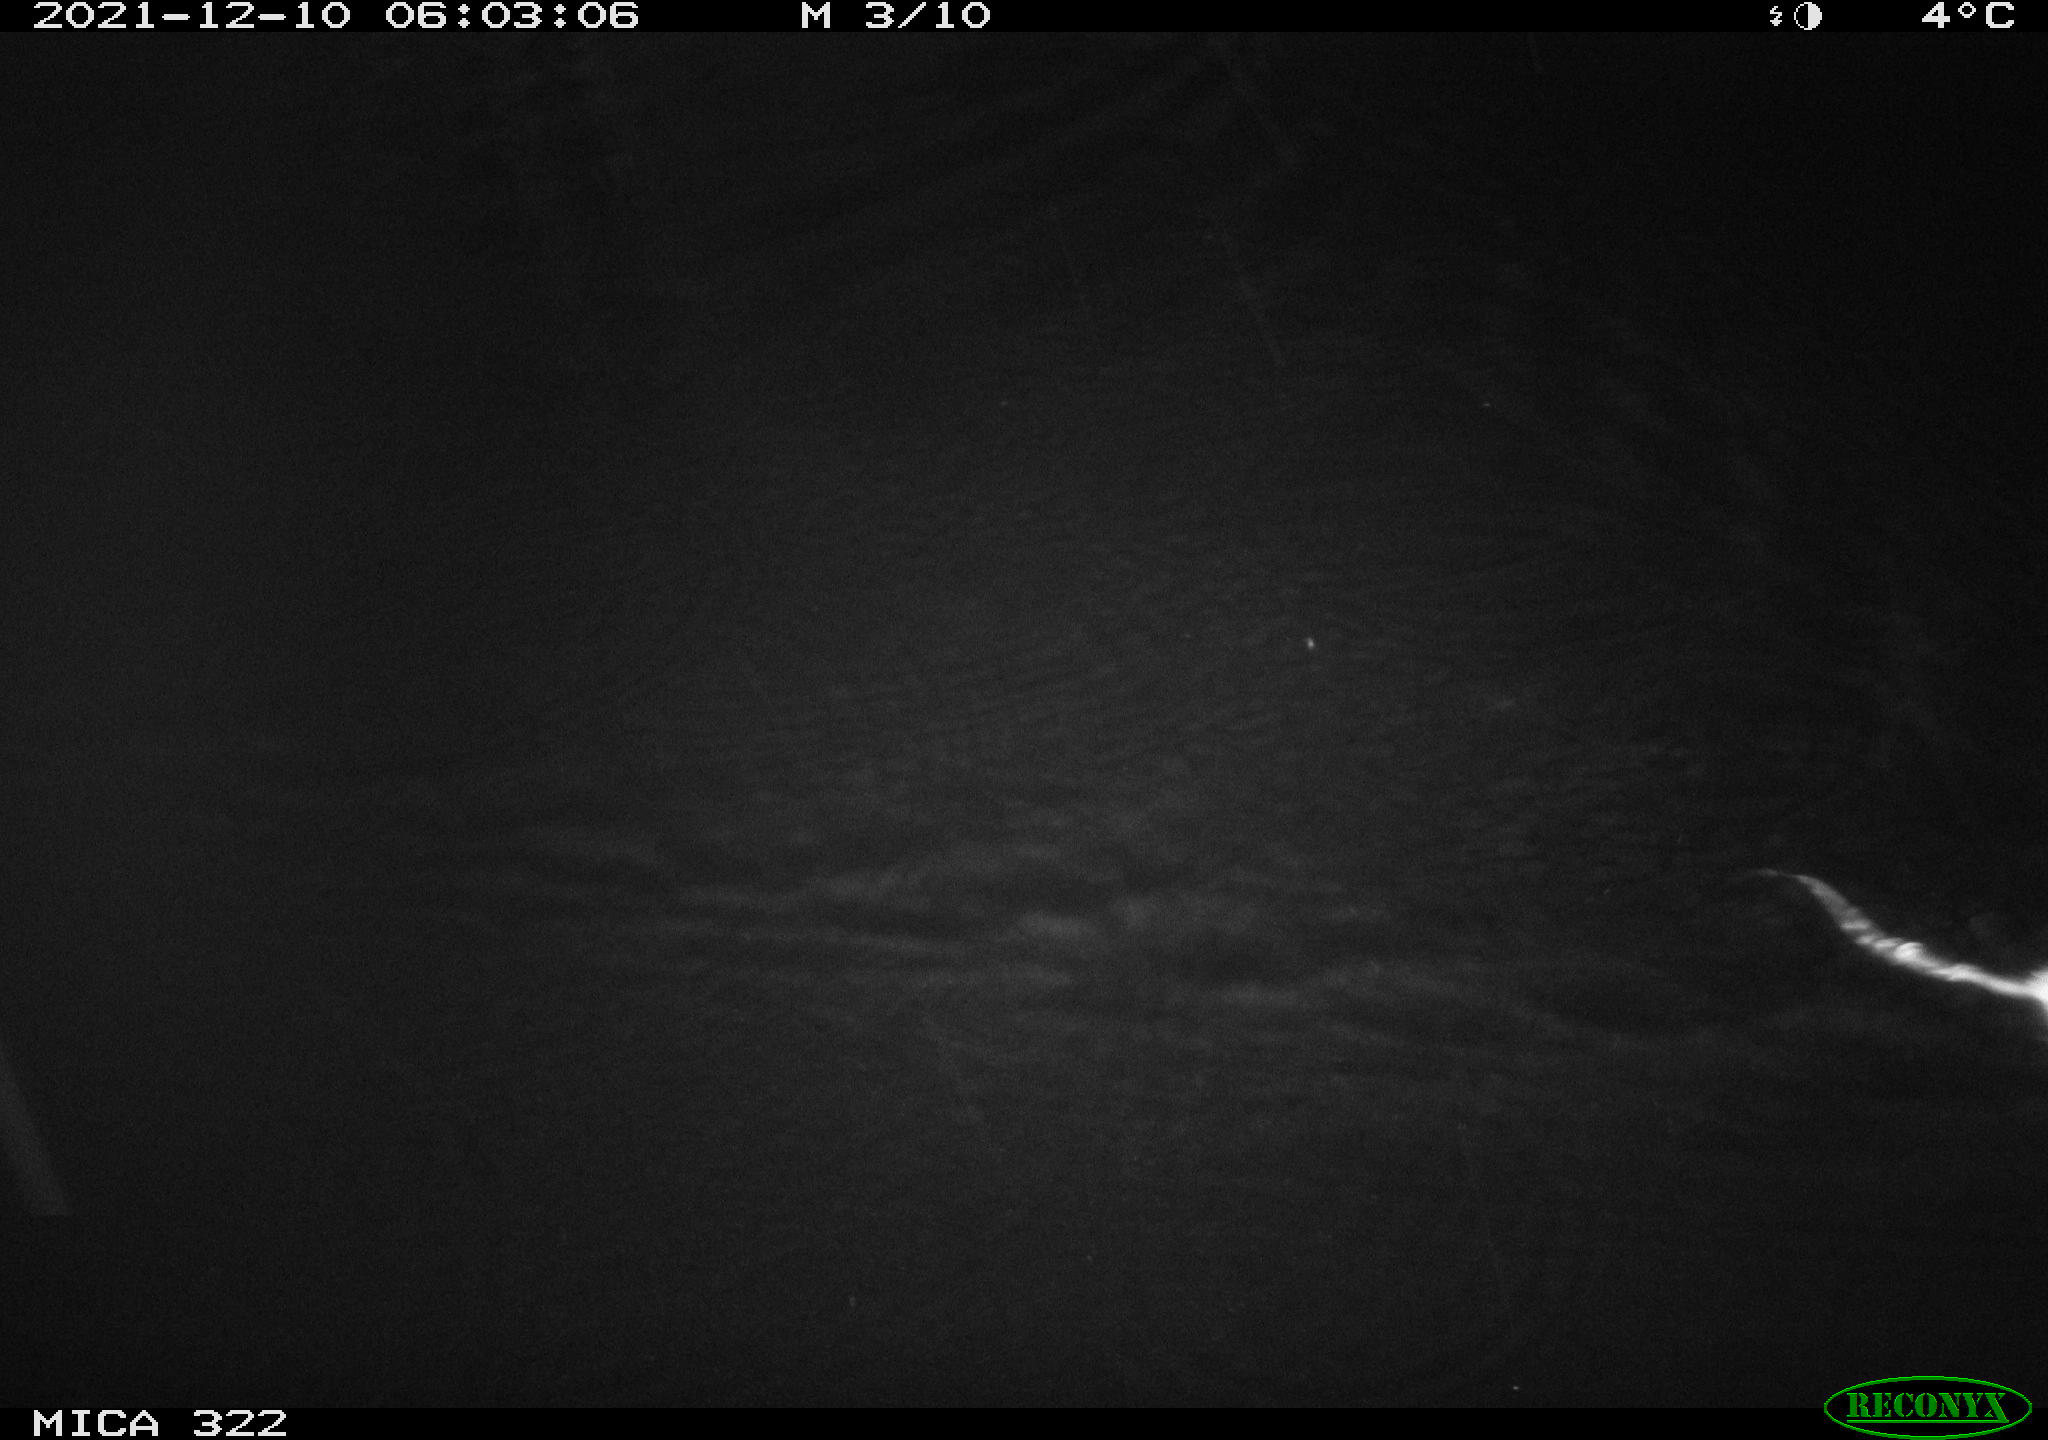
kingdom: Animalia
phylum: Chordata
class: Mammalia
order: Rodentia
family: Muridae
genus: Rattus
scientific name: Rattus norvegicus
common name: Brown rat
